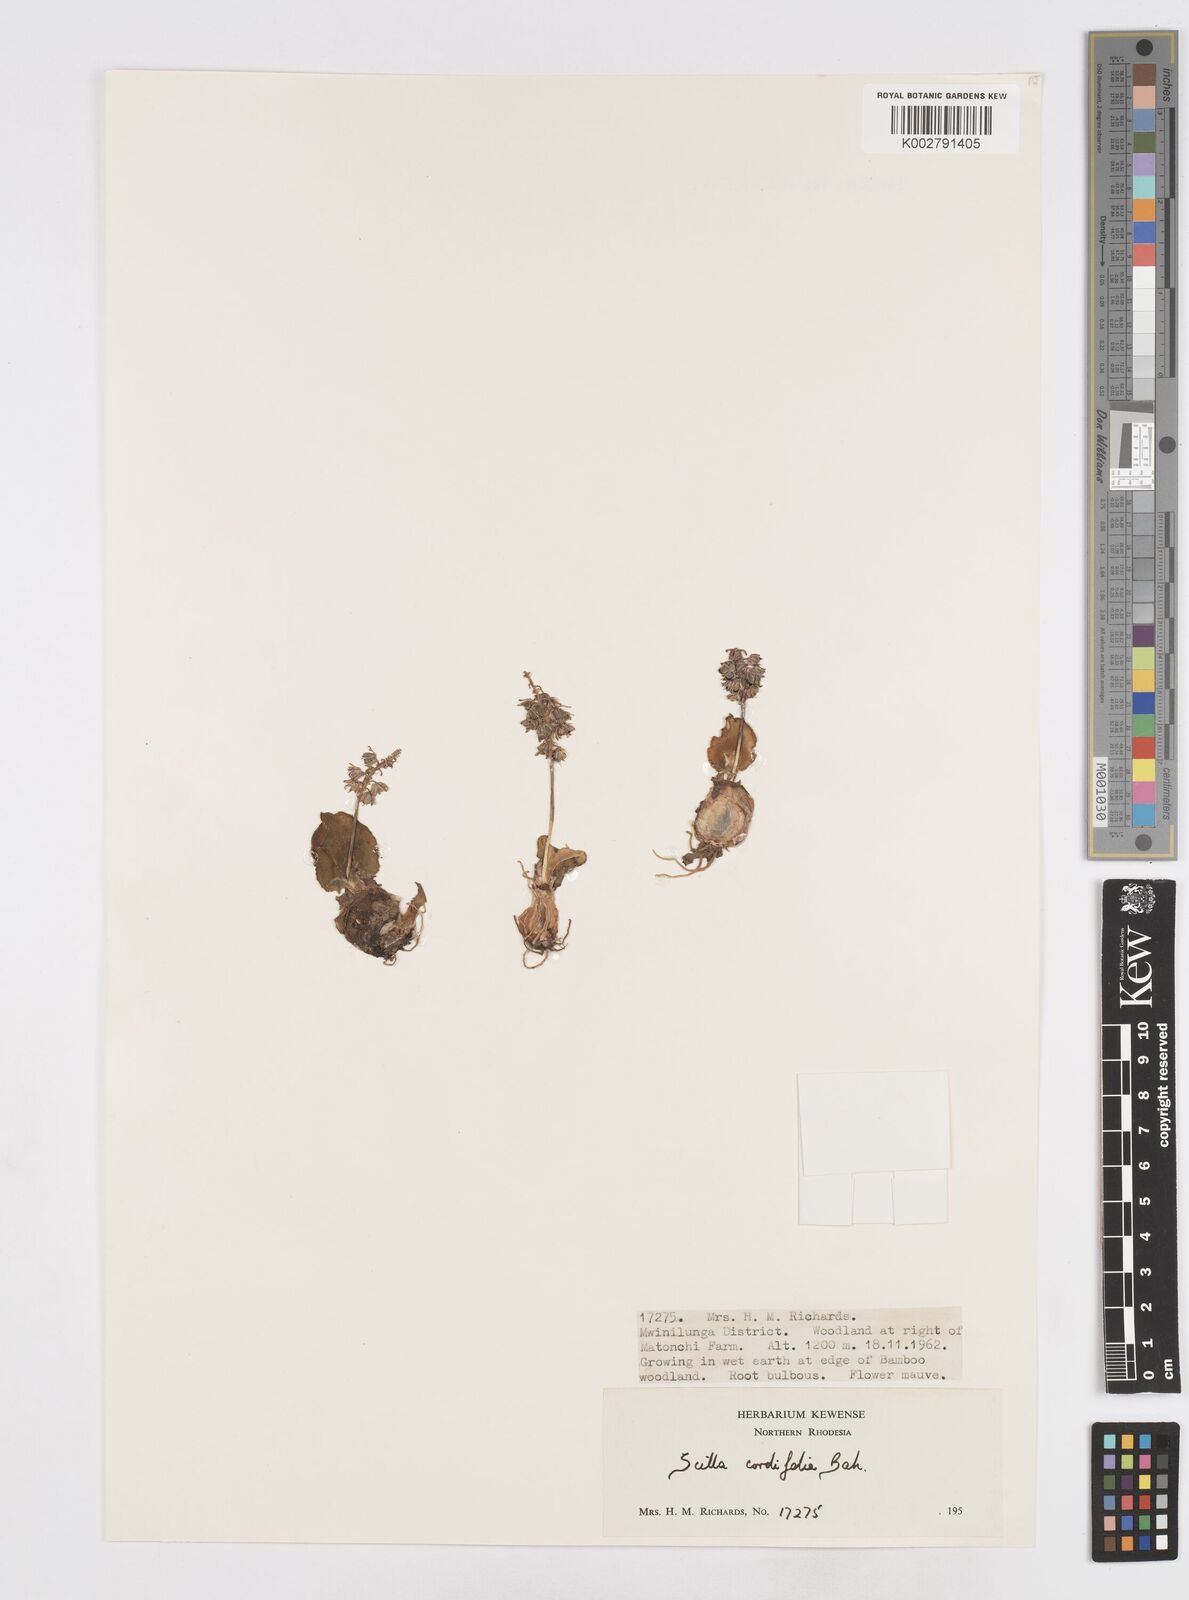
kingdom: Plantae
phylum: Tracheophyta
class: Liliopsida
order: Asparagales
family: Asparagaceae
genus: Ledebouria
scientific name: Ledebouria cordifolia
